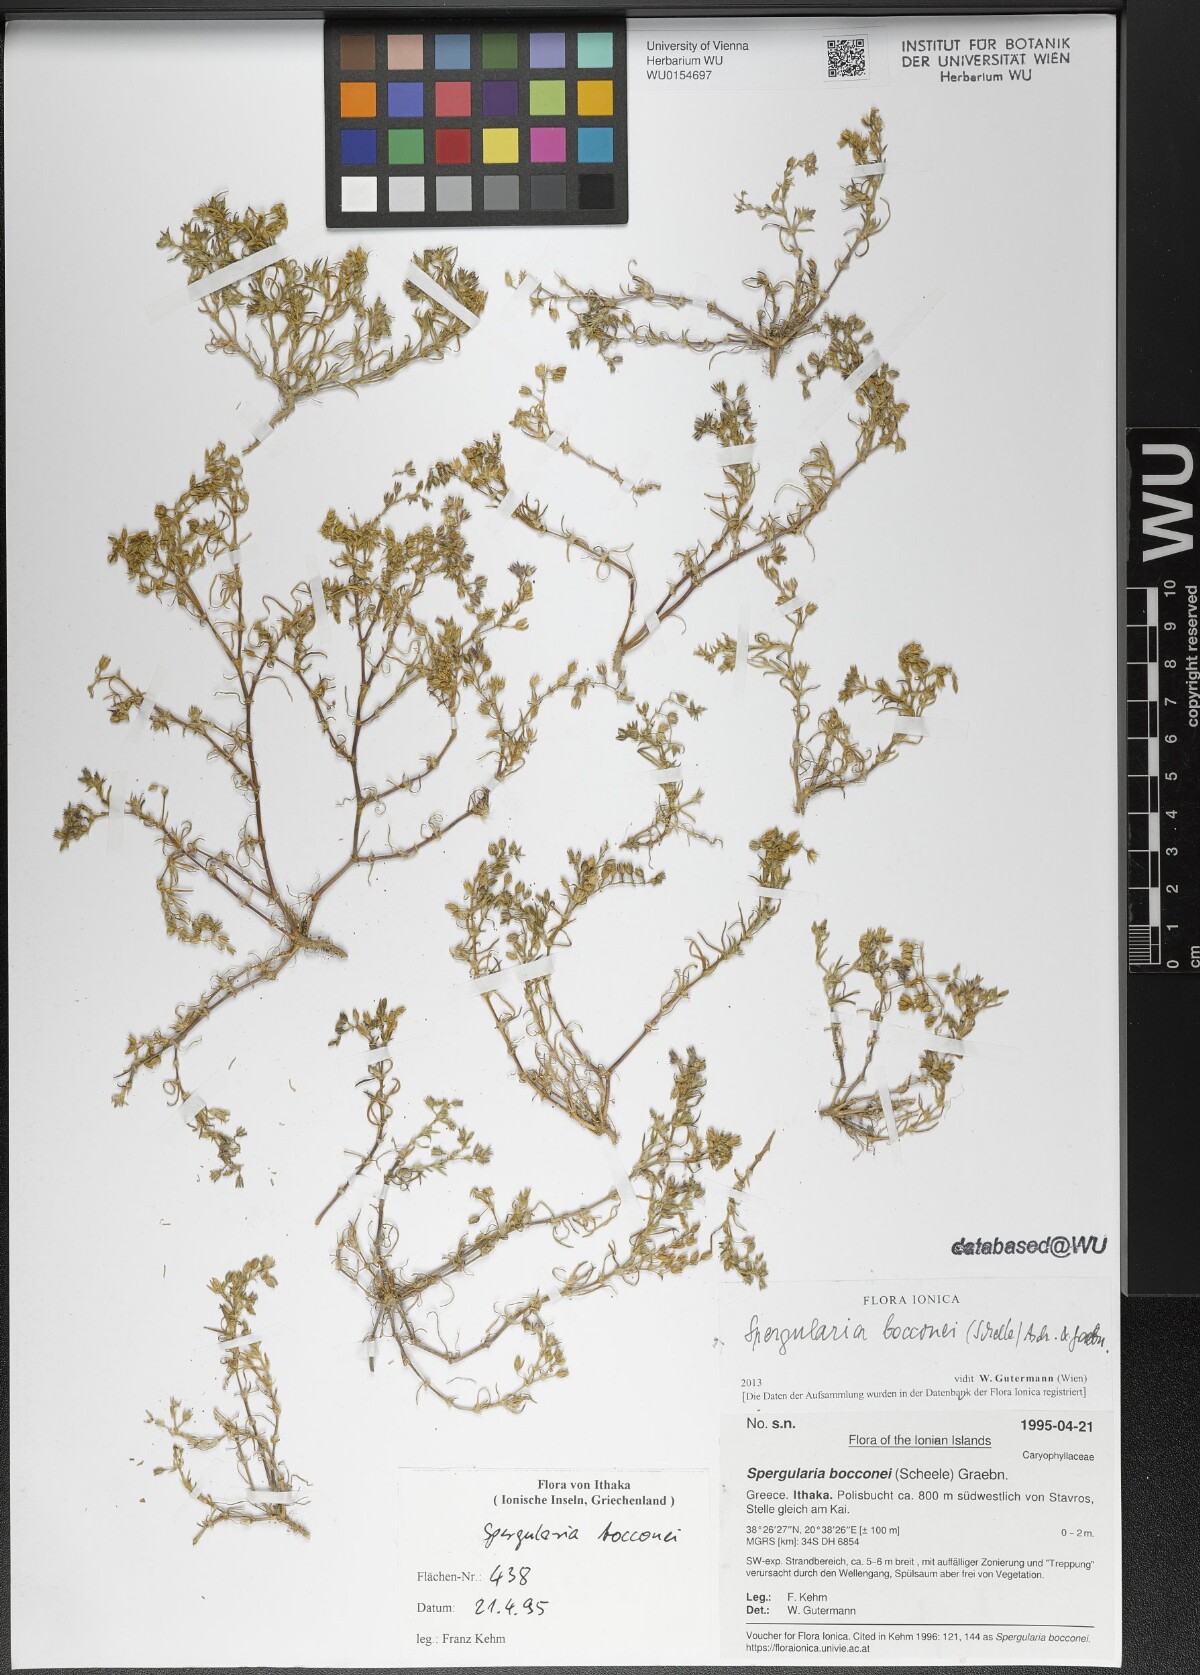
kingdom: Plantae
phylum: Tracheophyta
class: Magnoliopsida
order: Caryophyllales
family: Caryophyllaceae
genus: Spergularia
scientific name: Spergularia bocconei
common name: Greek sea-spurrey
